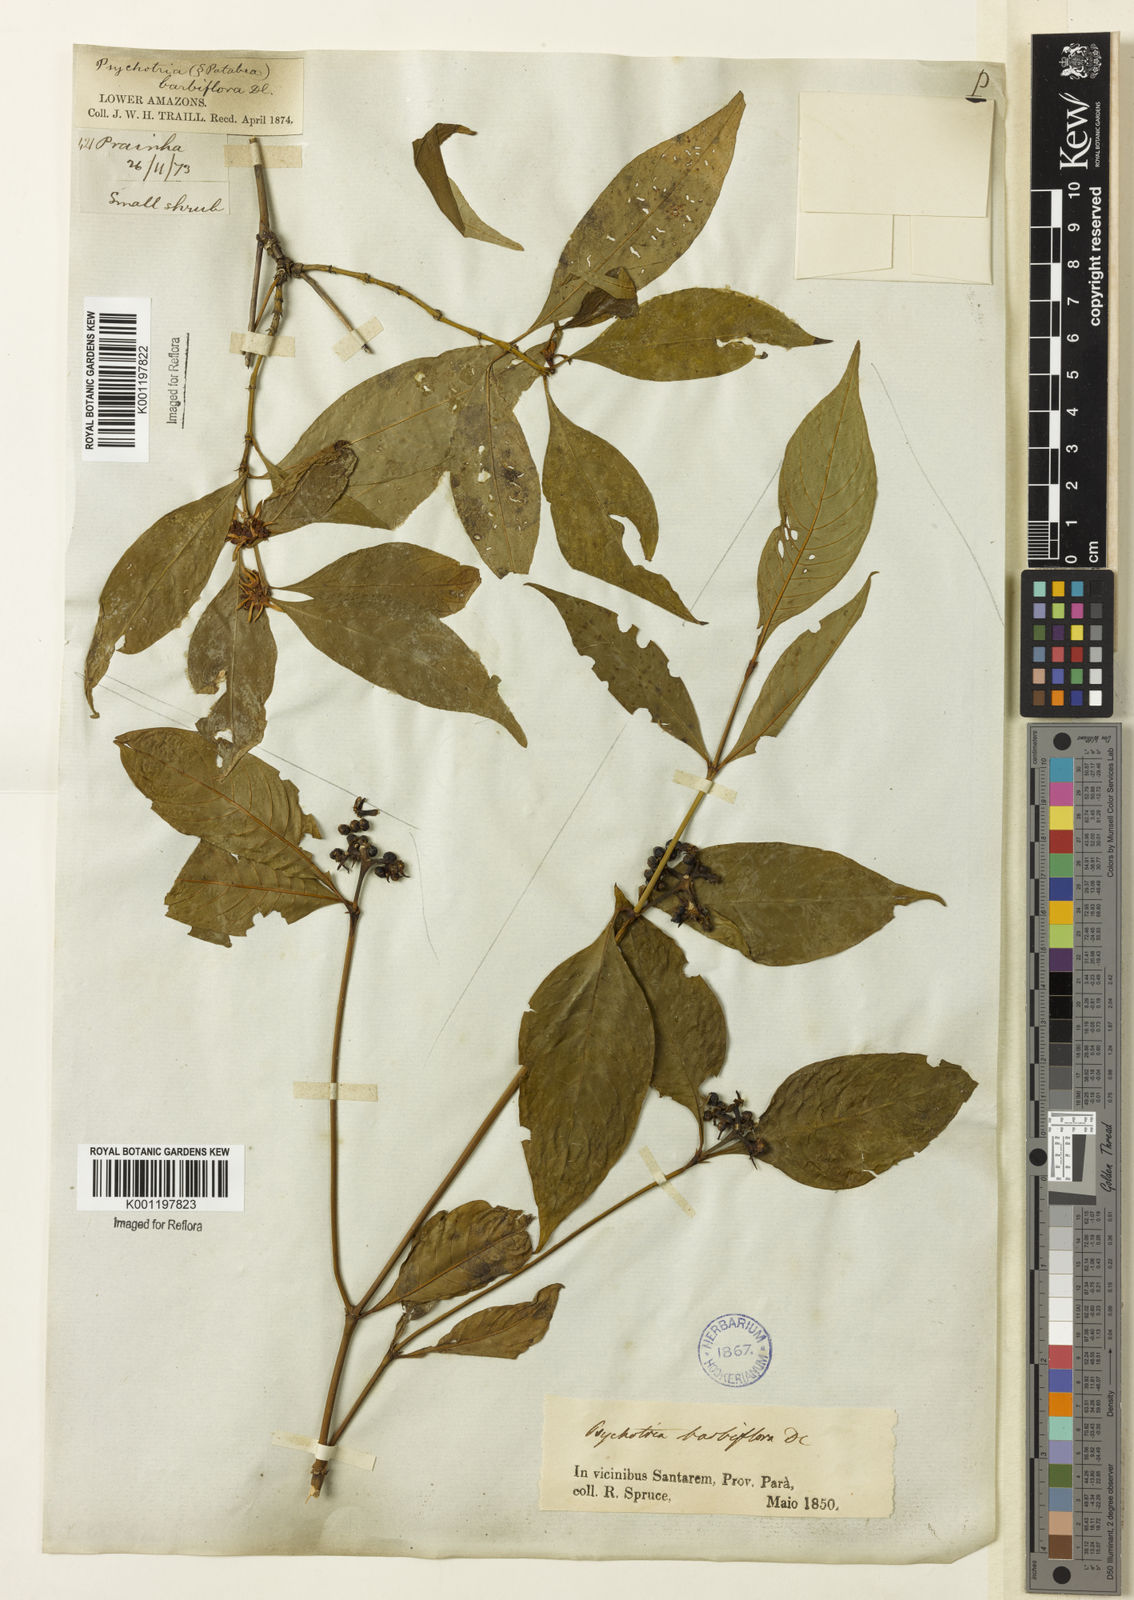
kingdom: Plantae
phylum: Tracheophyta
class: Magnoliopsida
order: Gentianales
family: Rubiaceae
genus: Psychotria
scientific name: Psychotria
